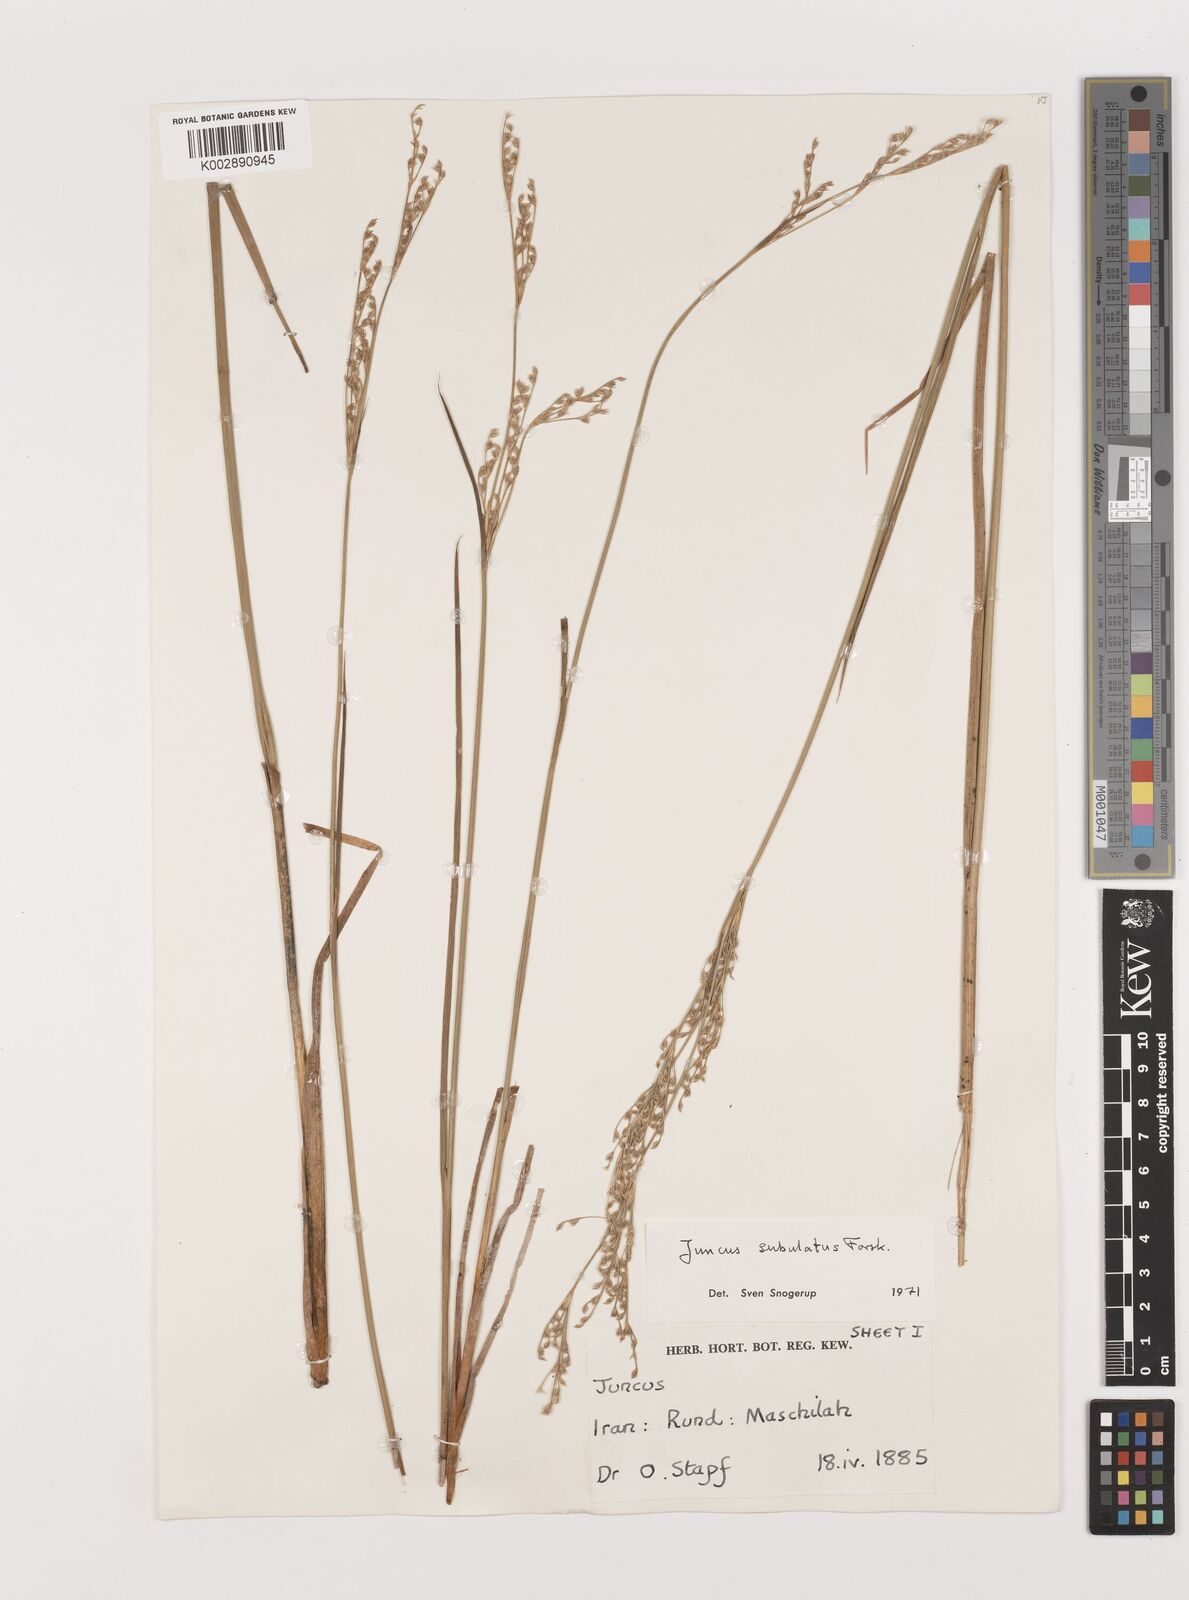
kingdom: Plantae
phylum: Tracheophyta
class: Liliopsida
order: Poales
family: Juncaceae
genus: Juncus
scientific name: Juncus subulatus
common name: Somerset rush
